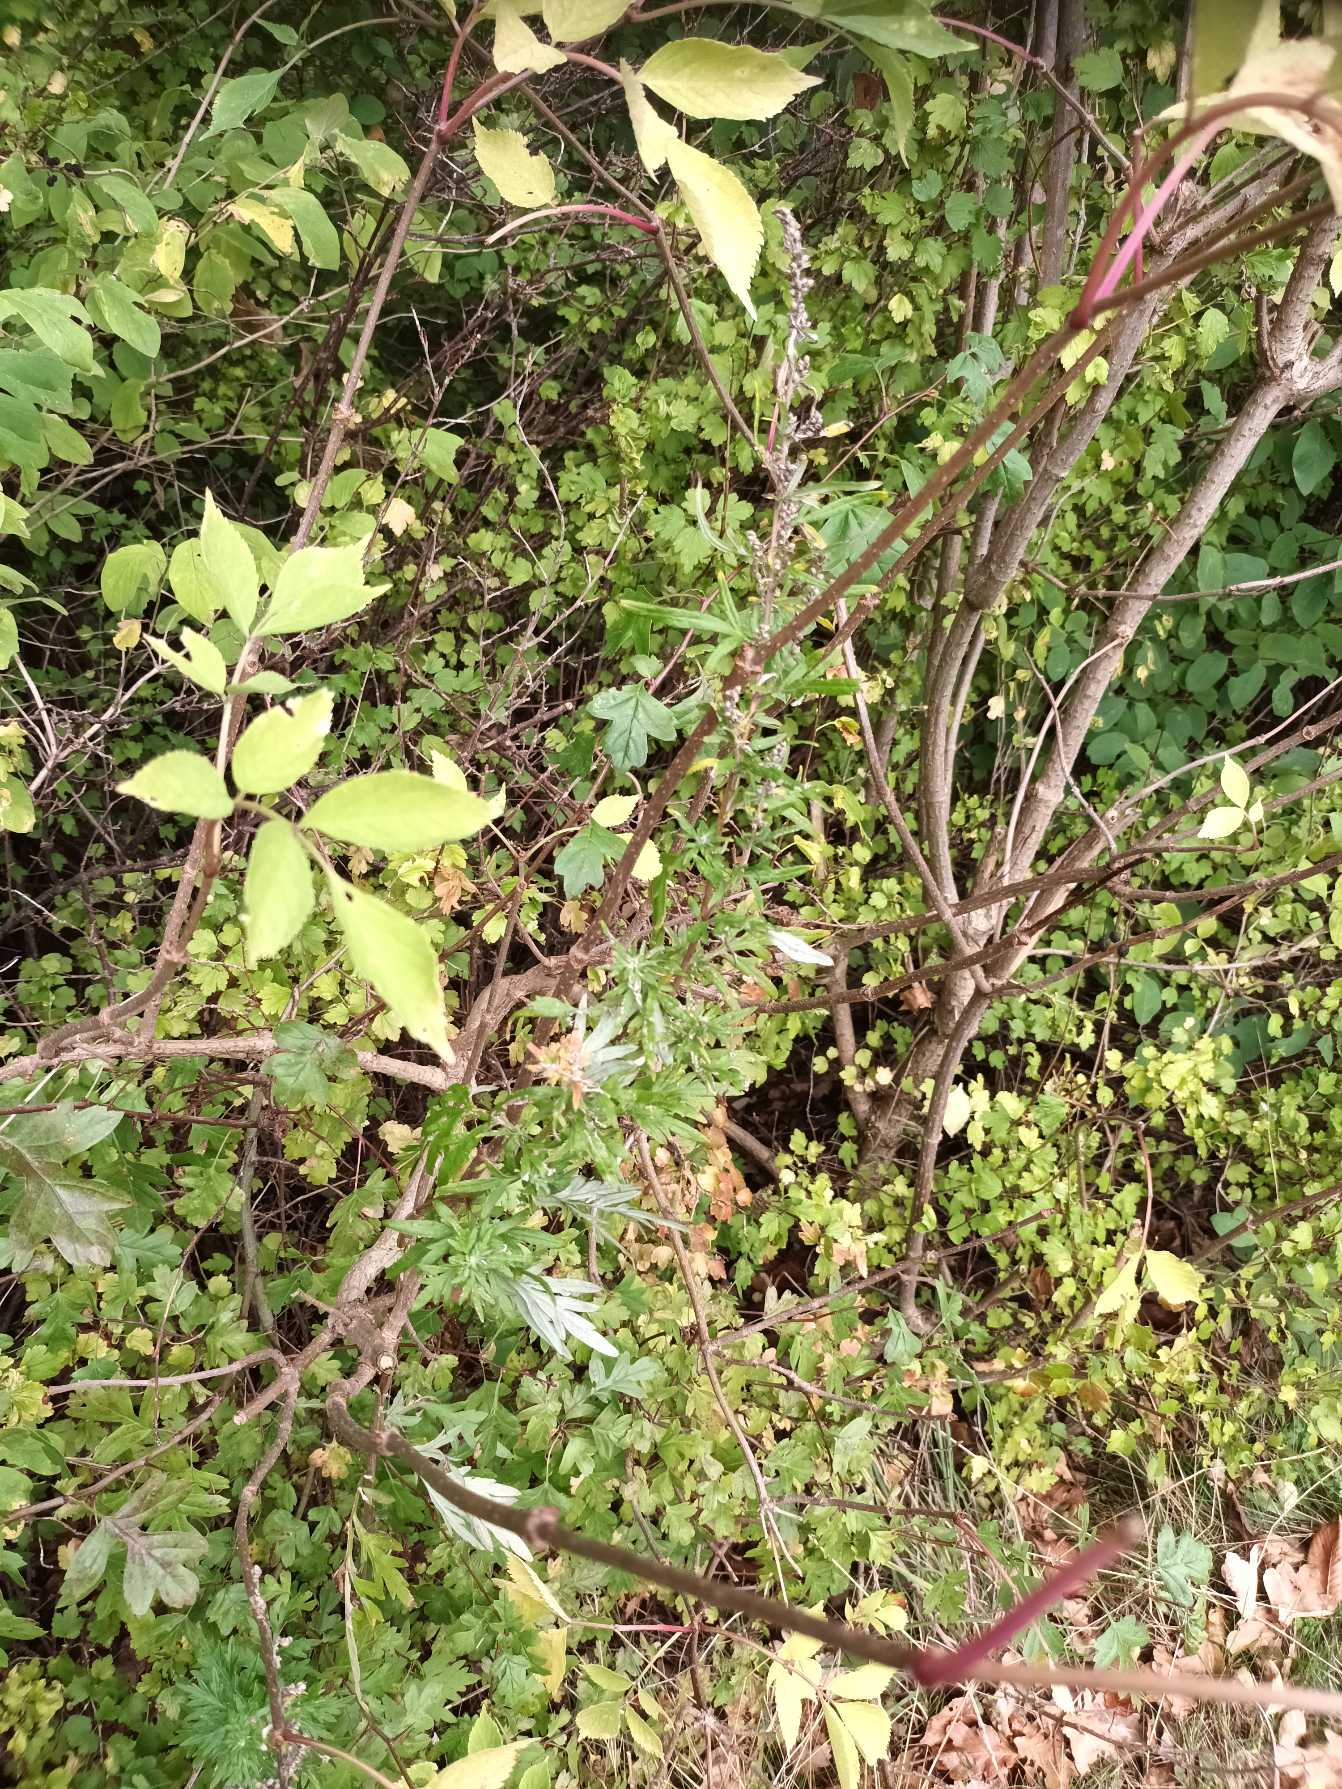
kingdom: Plantae
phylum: Tracheophyta
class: Magnoliopsida
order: Asterales
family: Asteraceae
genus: Artemisia
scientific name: Artemisia vulgaris
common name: Grå-bynke
